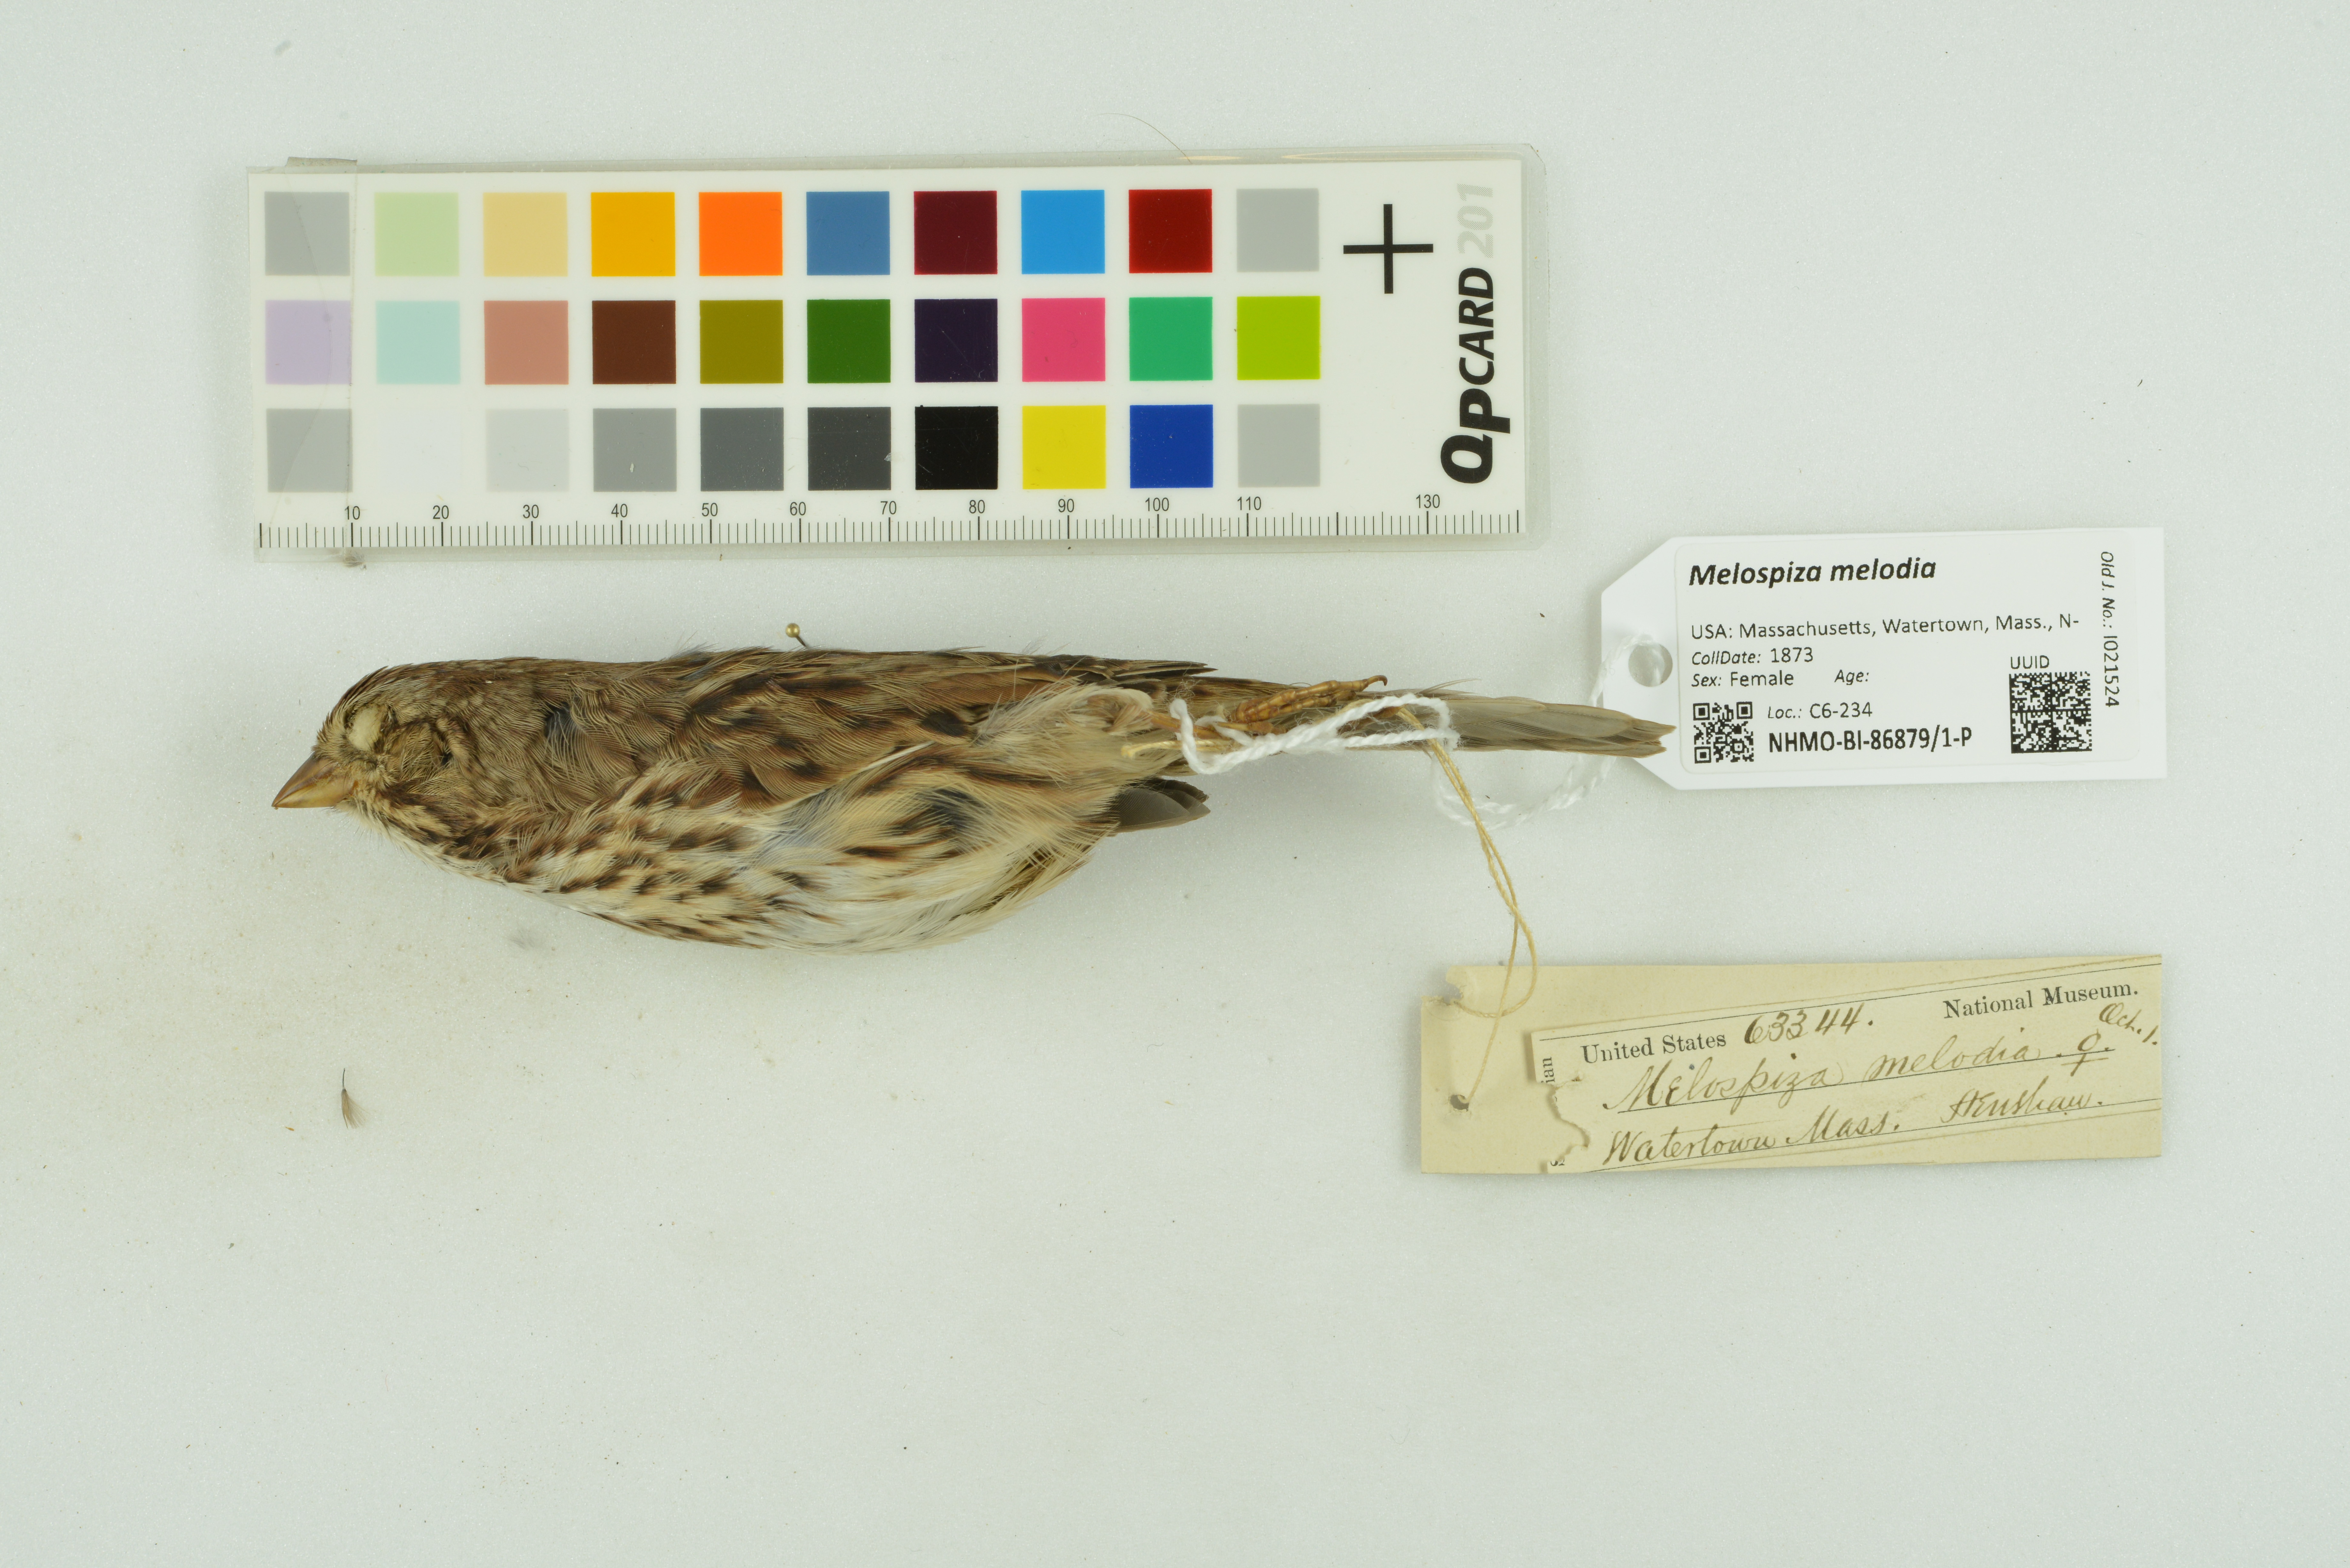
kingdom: Animalia
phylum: Chordata
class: Aves
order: Passeriformes
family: Passerellidae
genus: Melospiza
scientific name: Melospiza melodia
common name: Song sparrow
